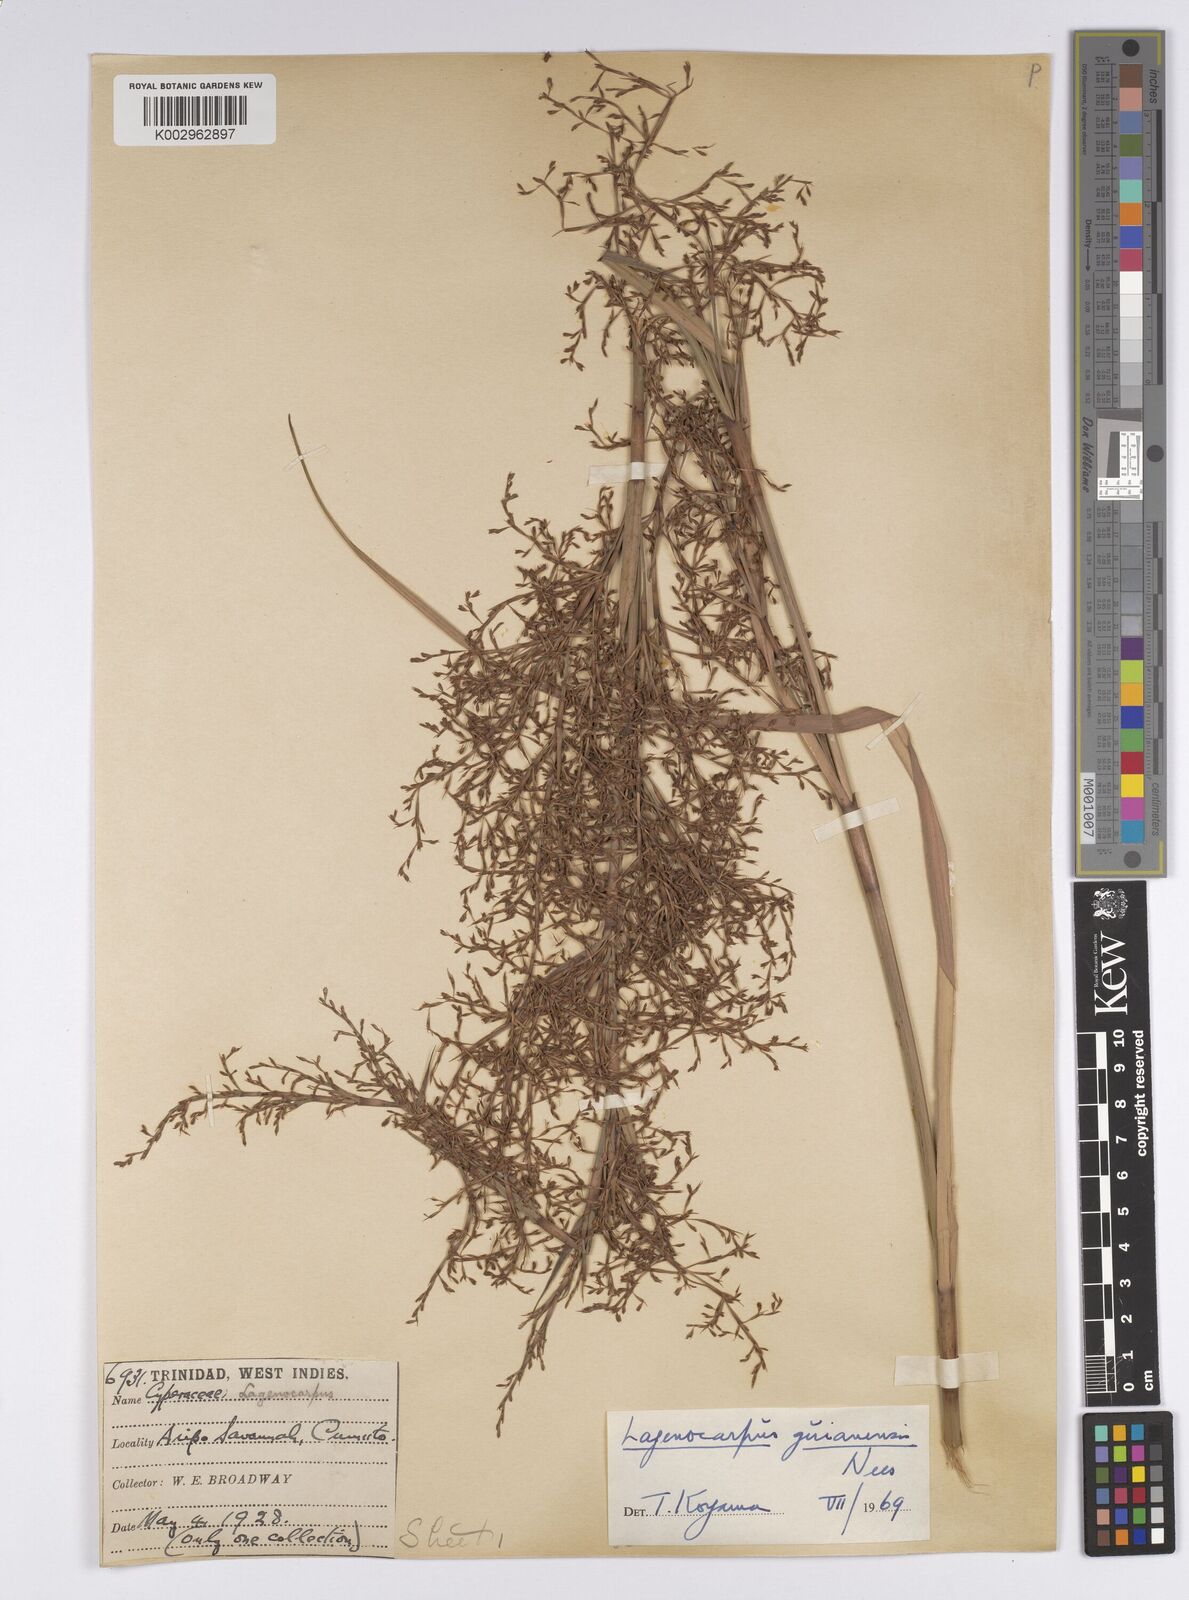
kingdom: Plantae
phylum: Tracheophyta
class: Liliopsida
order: Poales
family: Cyperaceae
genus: Lagenocarpus
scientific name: Lagenocarpus guianensis
